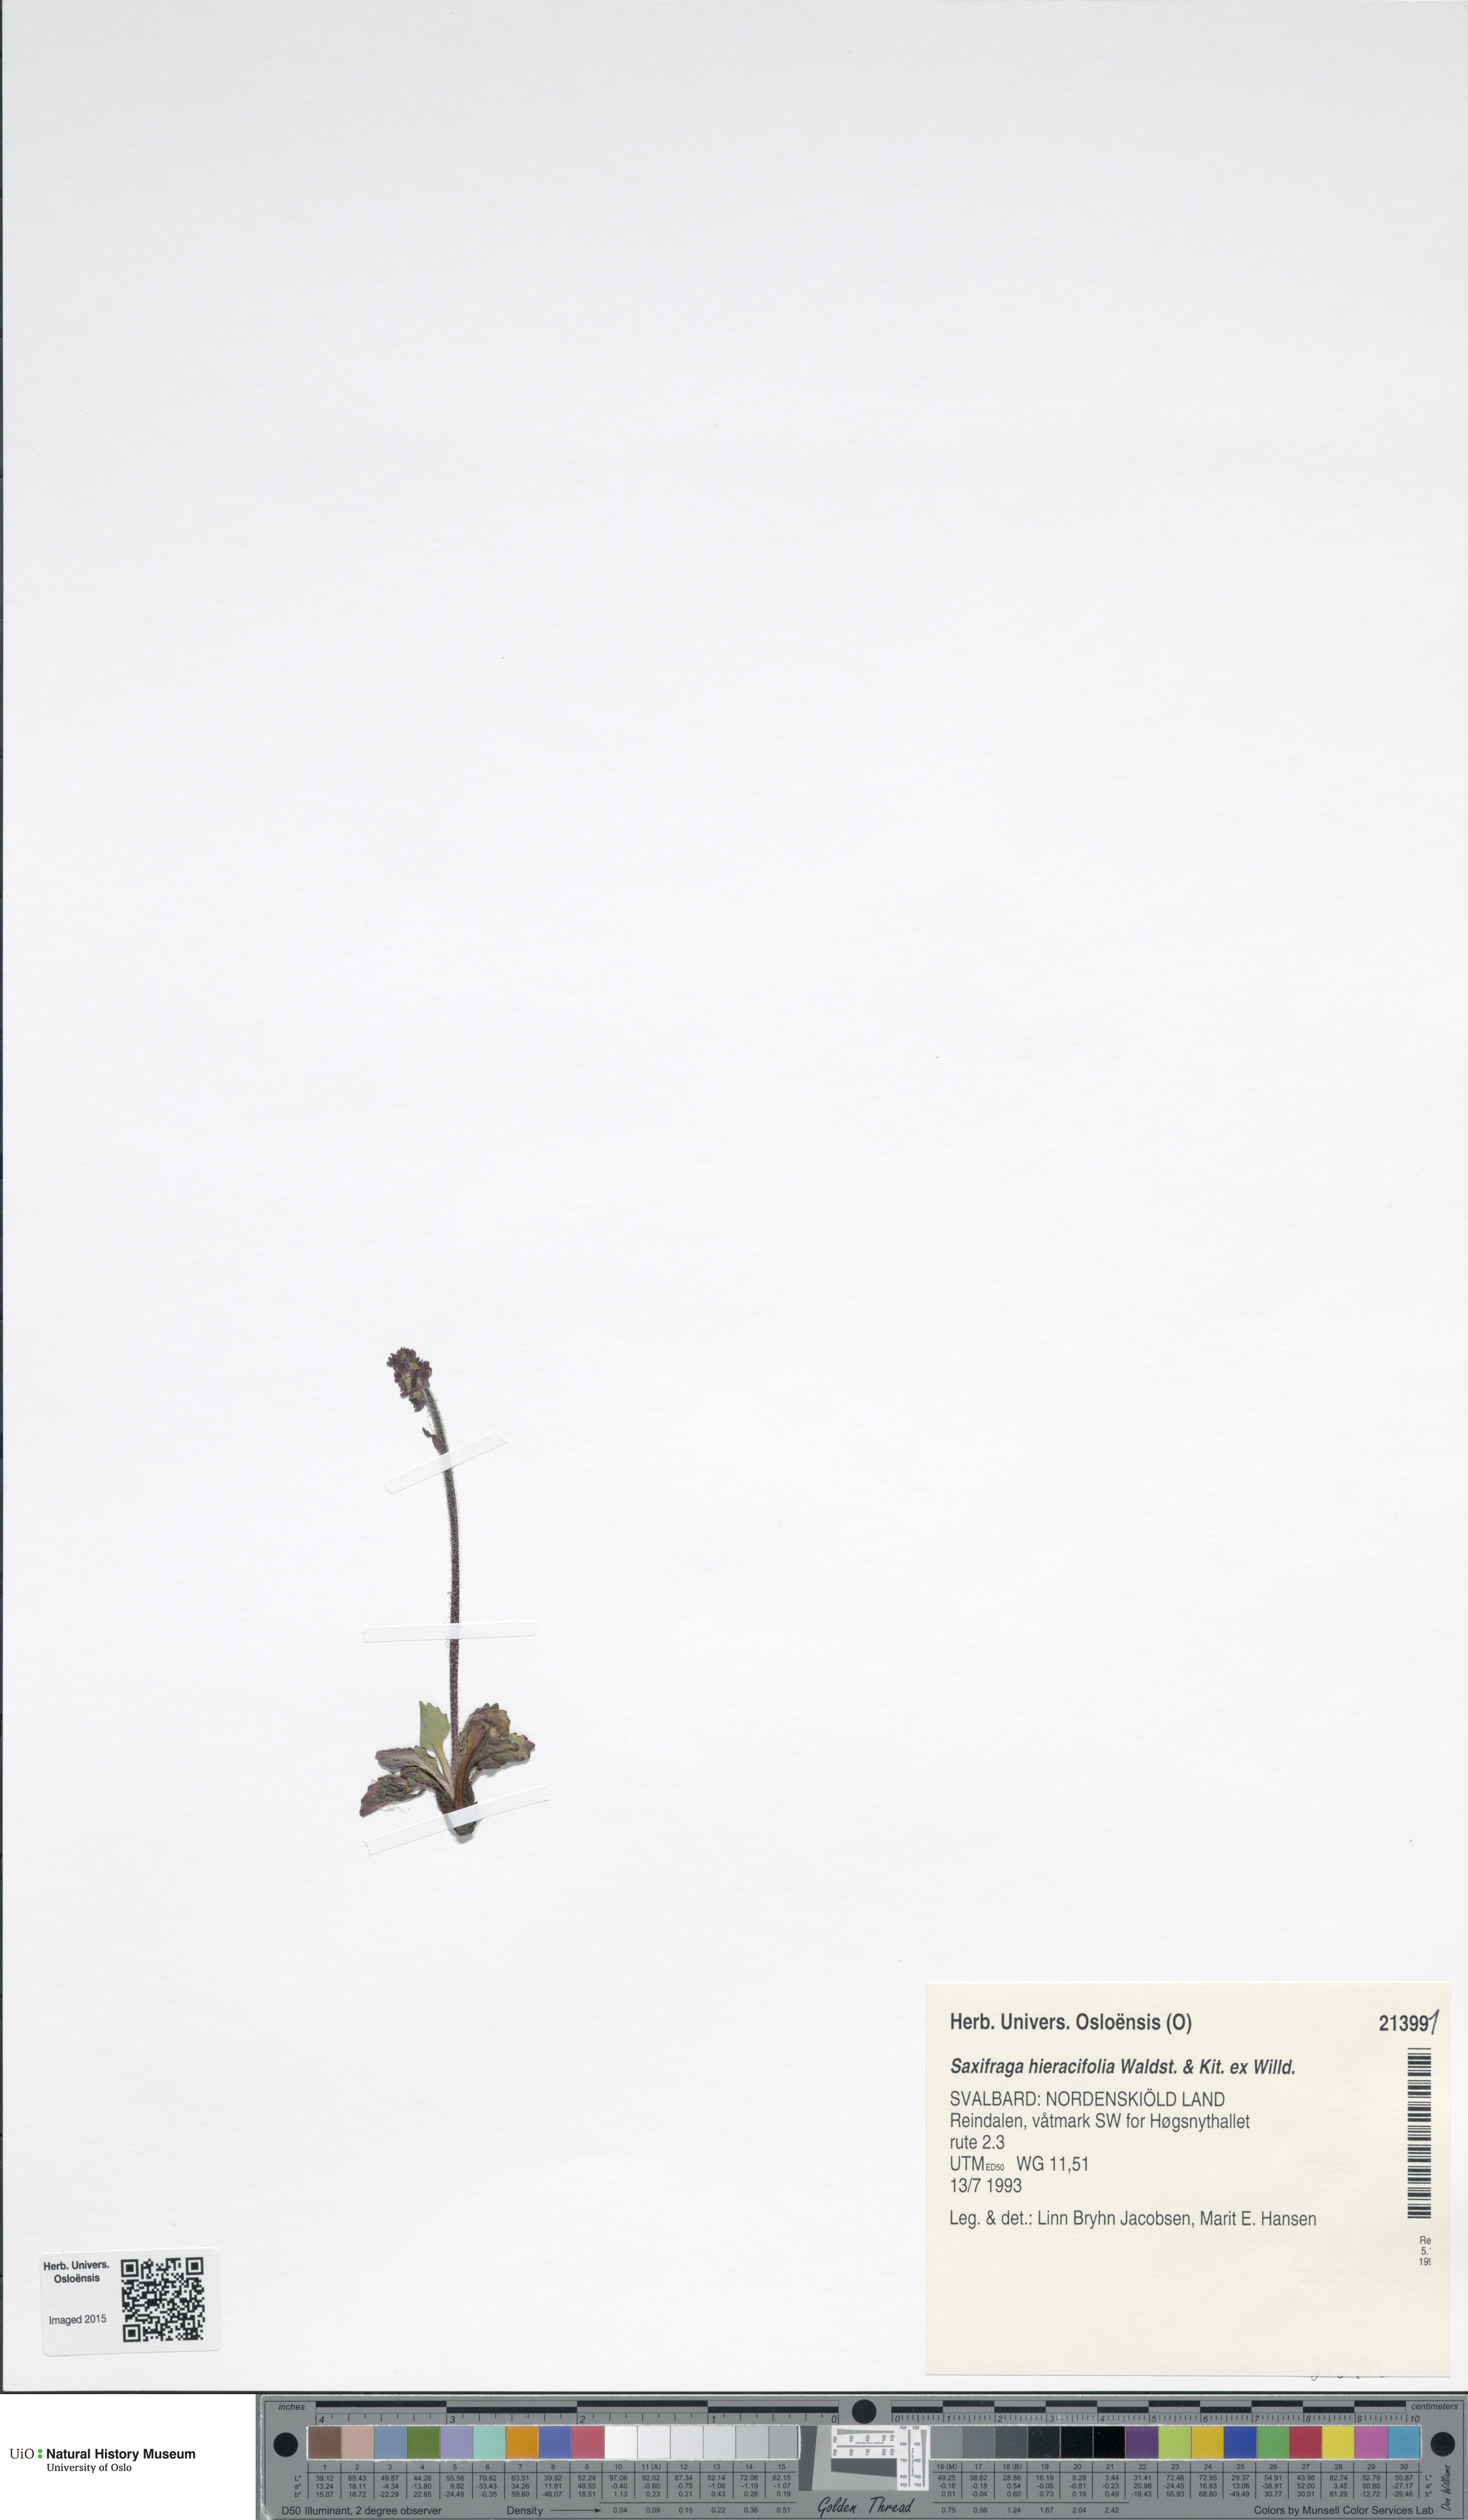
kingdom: Plantae
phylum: Tracheophyta
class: Magnoliopsida
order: Saxifragales
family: Saxifragaceae
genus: Micranthes
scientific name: Micranthes hieraciifolia
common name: Hawkweed-leaved saxifrage
